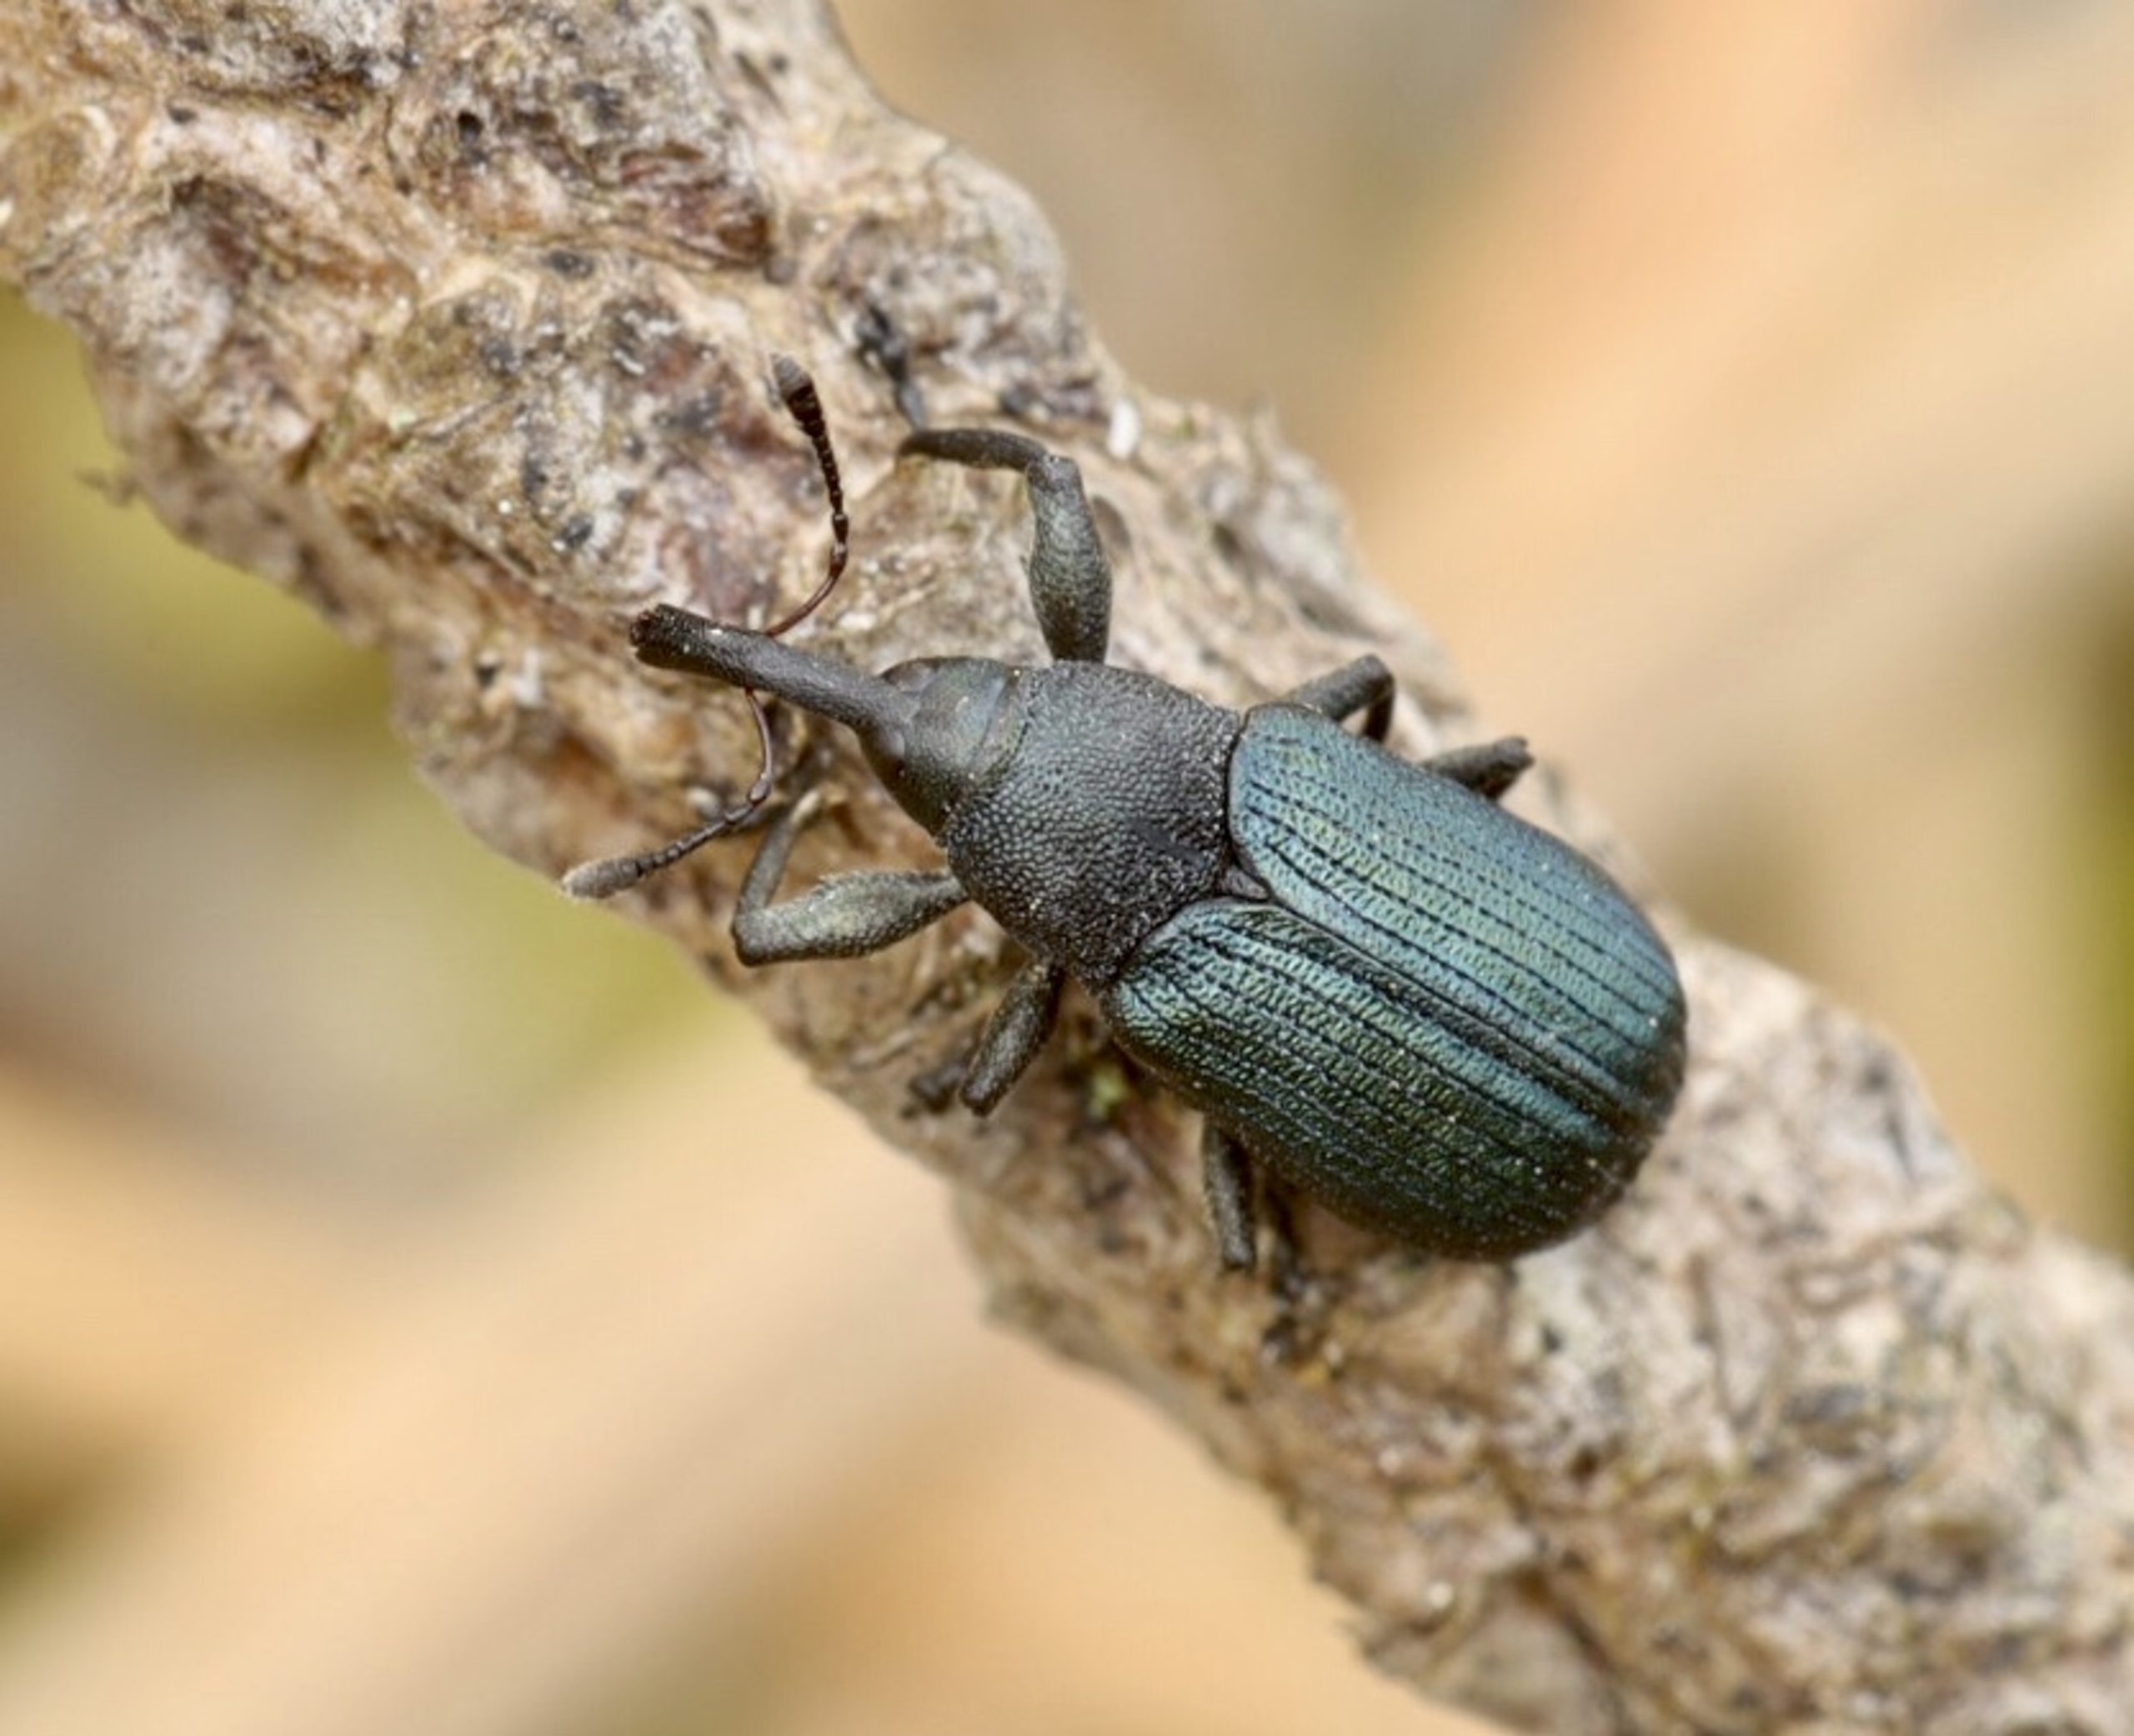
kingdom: Animalia
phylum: Arthropoda
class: Insecta
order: Coleoptera
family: Curculionidae
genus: Magdalis
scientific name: Magdalis frontalis
